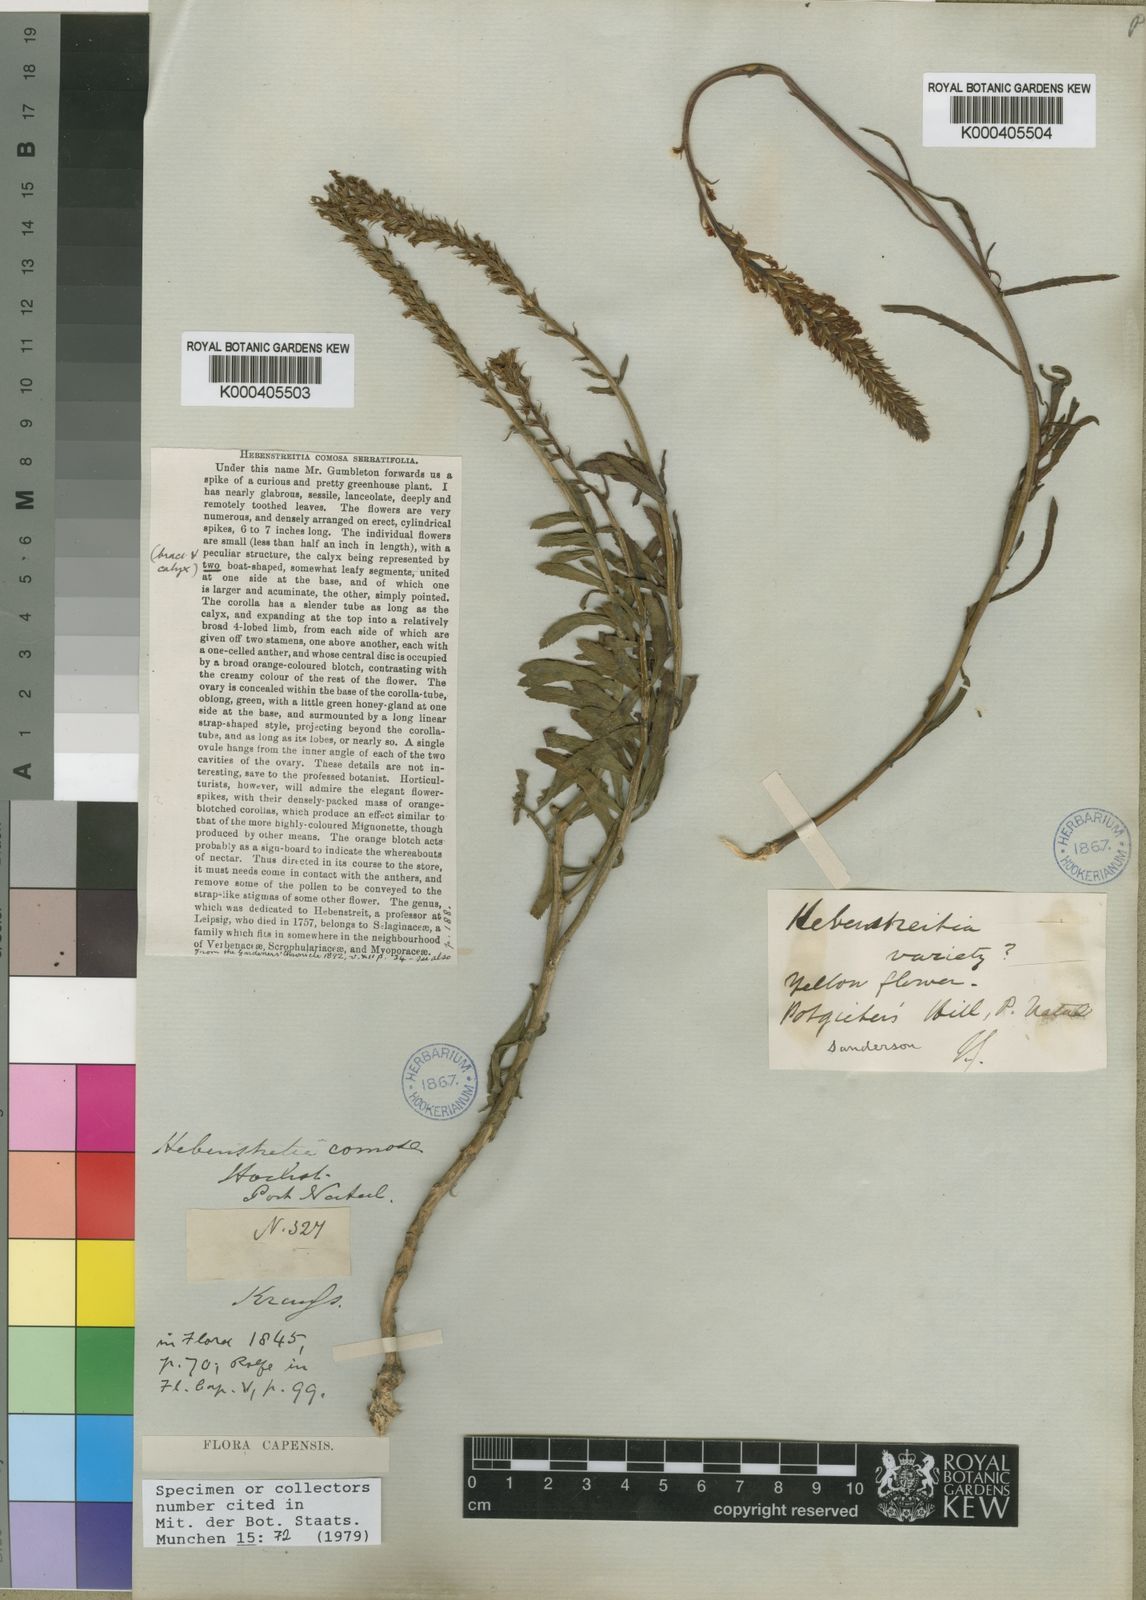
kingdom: Plantae
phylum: Tracheophyta
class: Magnoliopsida
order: Lamiales
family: Scrophulariaceae
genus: Hebenstretia
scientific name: Hebenstretia comosa
